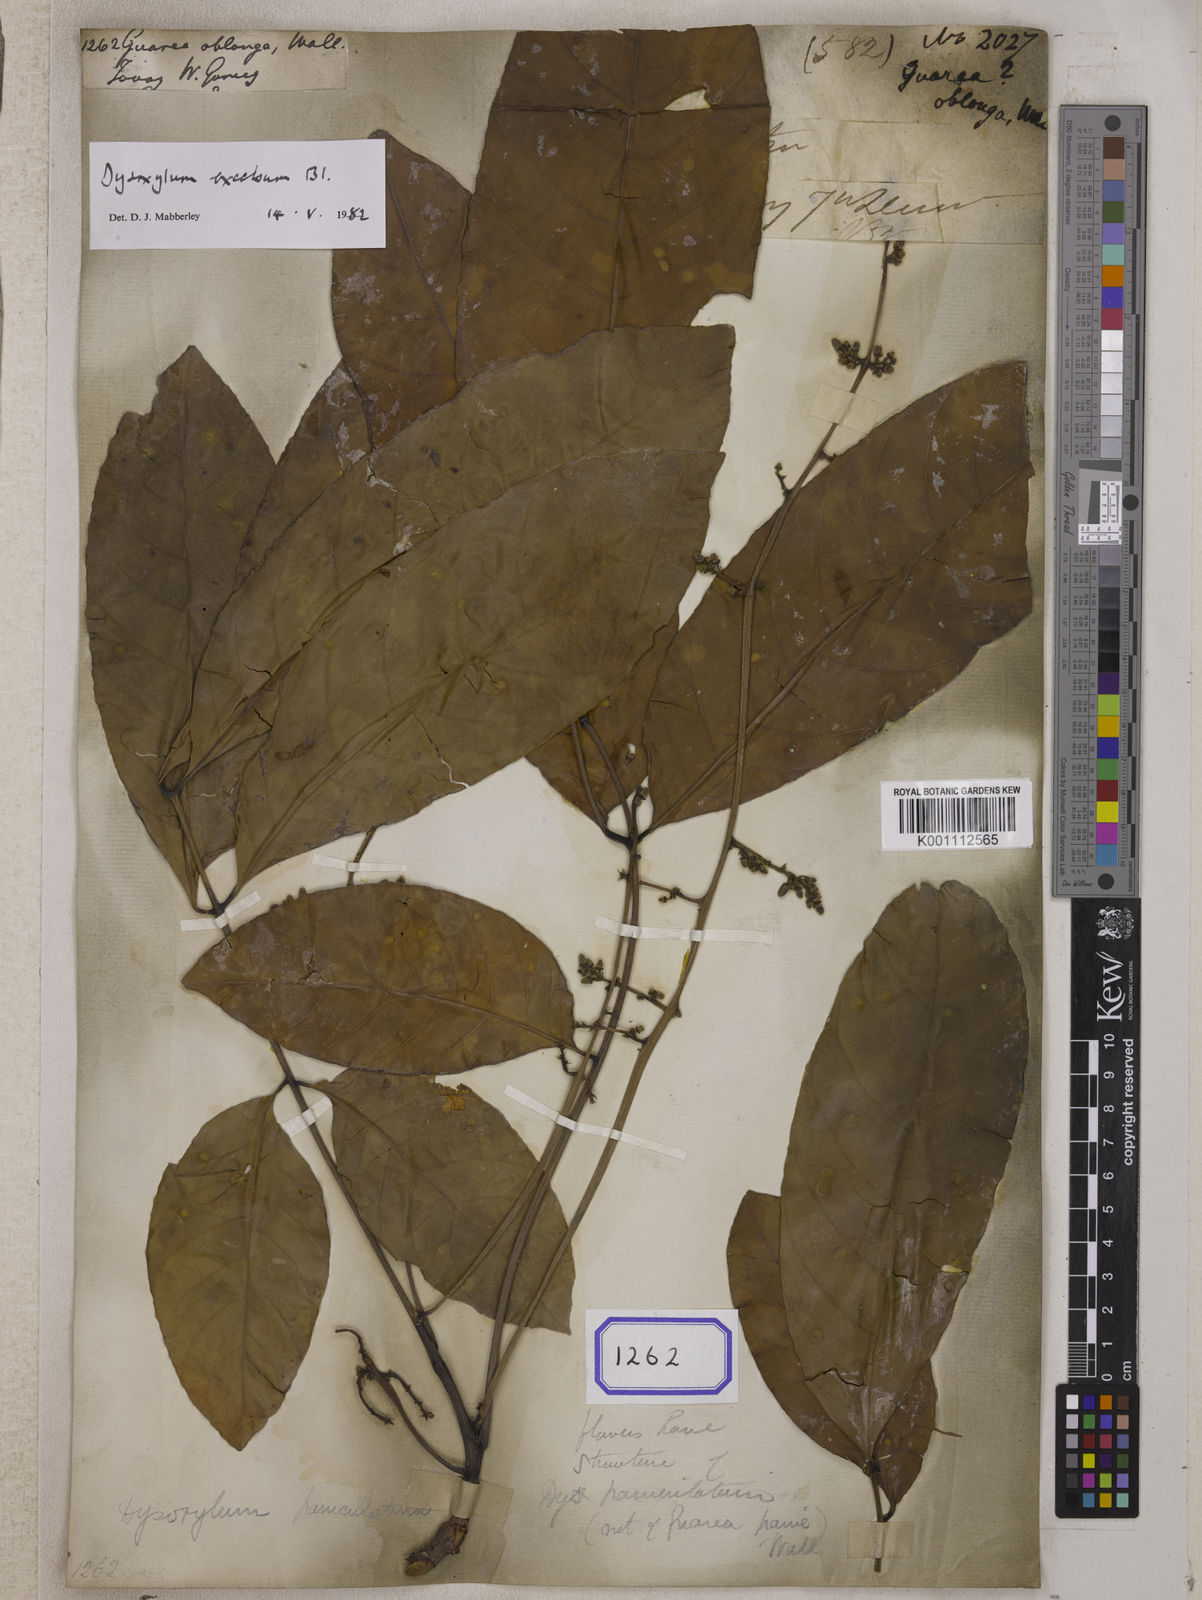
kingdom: Plantae
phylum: Tracheophyta
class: Magnoliopsida
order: Sapindales
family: Meliaceae
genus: Prasoxylon
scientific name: Prasoxylon excelsum
